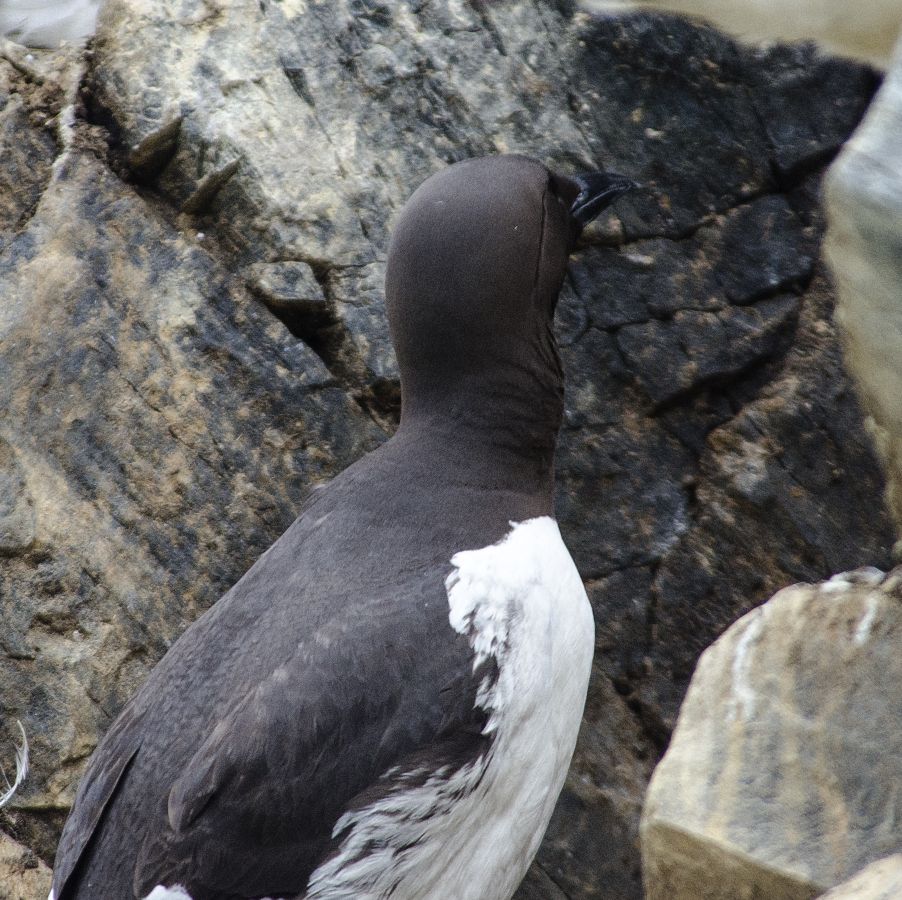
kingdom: Animalia
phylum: Chordata
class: Aves
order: Charadriiformes
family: Alcidae
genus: Uria
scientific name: Uria aalge
